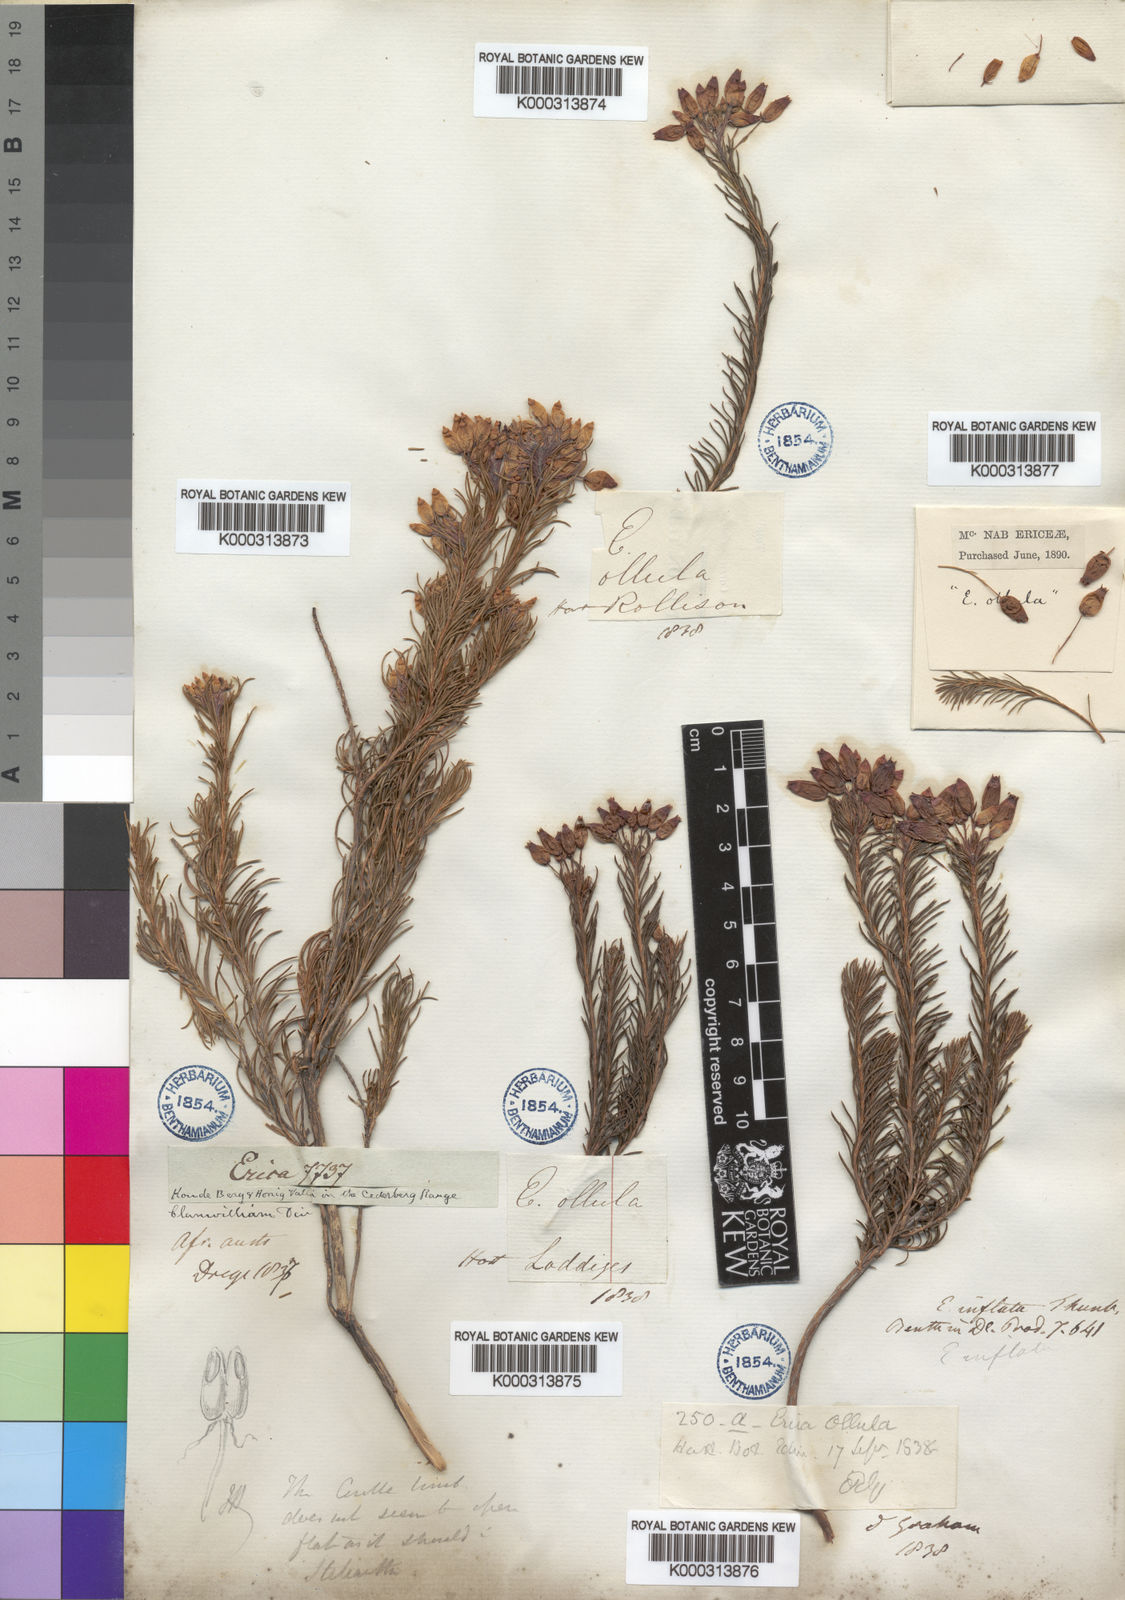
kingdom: Plantae
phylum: Tracheophyta
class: Magnoliopsida
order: Ericales
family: Ericaceae
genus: Erica
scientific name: Erica inflata
